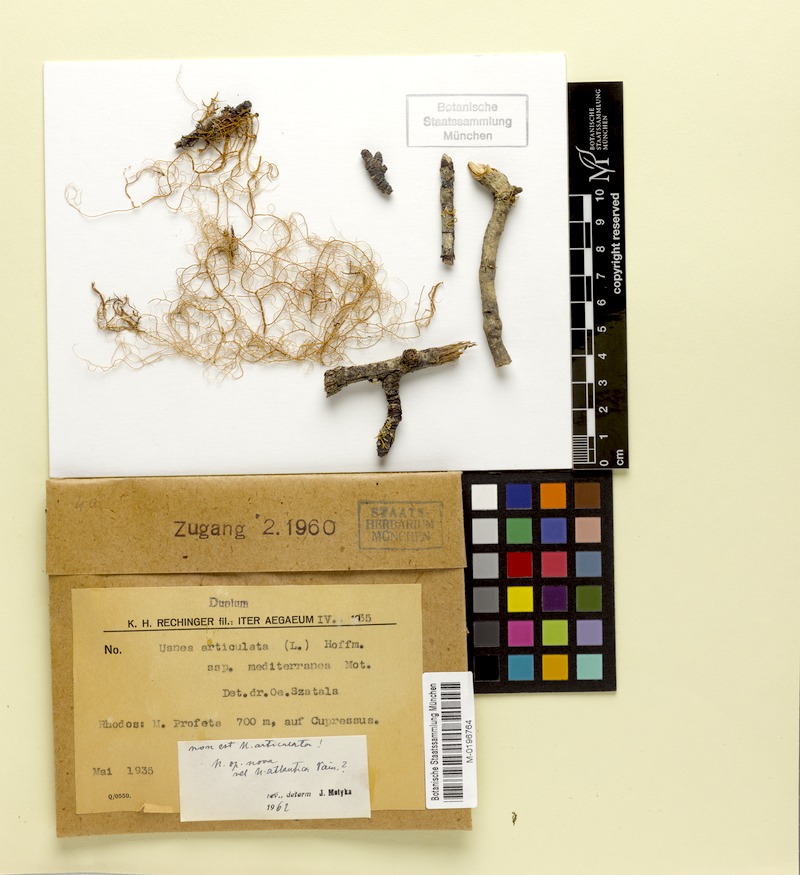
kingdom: Fungi
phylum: Ascomycota
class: Lecanoromycetes
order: Lecanorales
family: Parmeliaceae
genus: Usnea
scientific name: Usnea articulata
